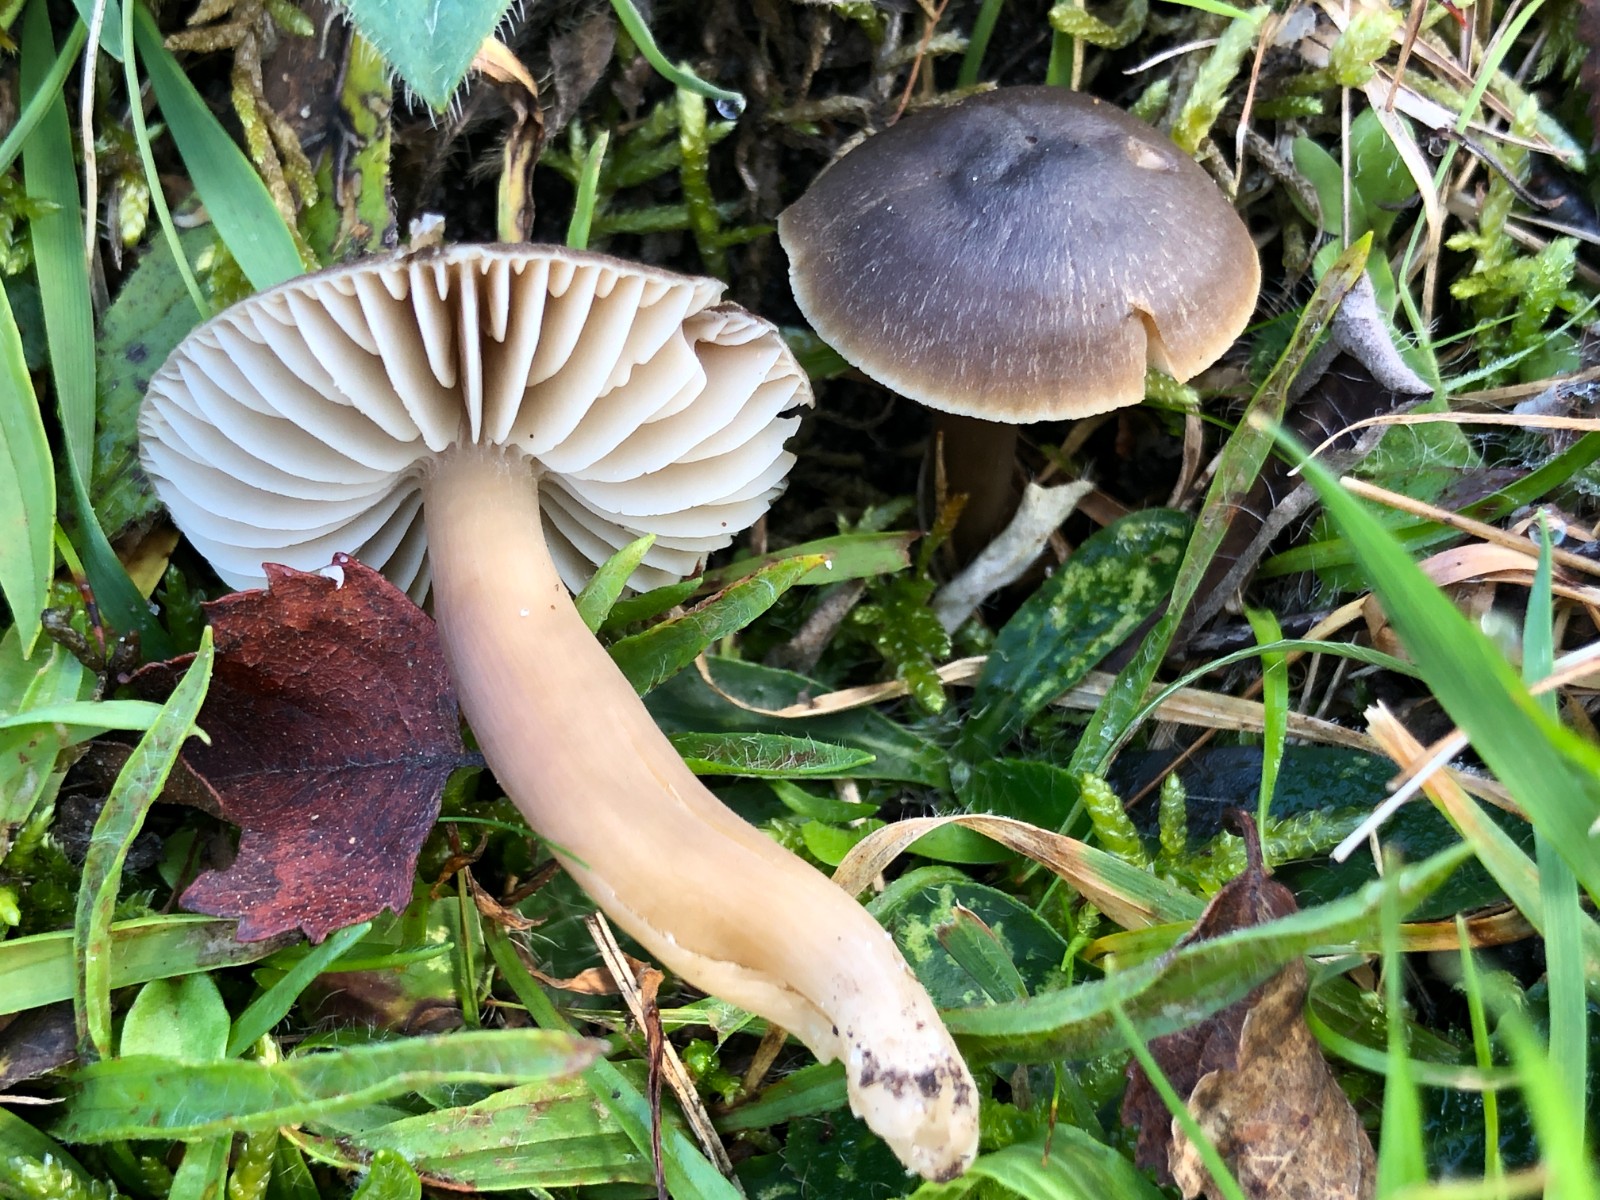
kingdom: Fungi
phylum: Basidiomycota
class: Agaricomycetes
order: Agaricales
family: Hygrophoraceae
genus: Neohygrocybe
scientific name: Neohygrocybe nitrata
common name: stinkende vokshat
